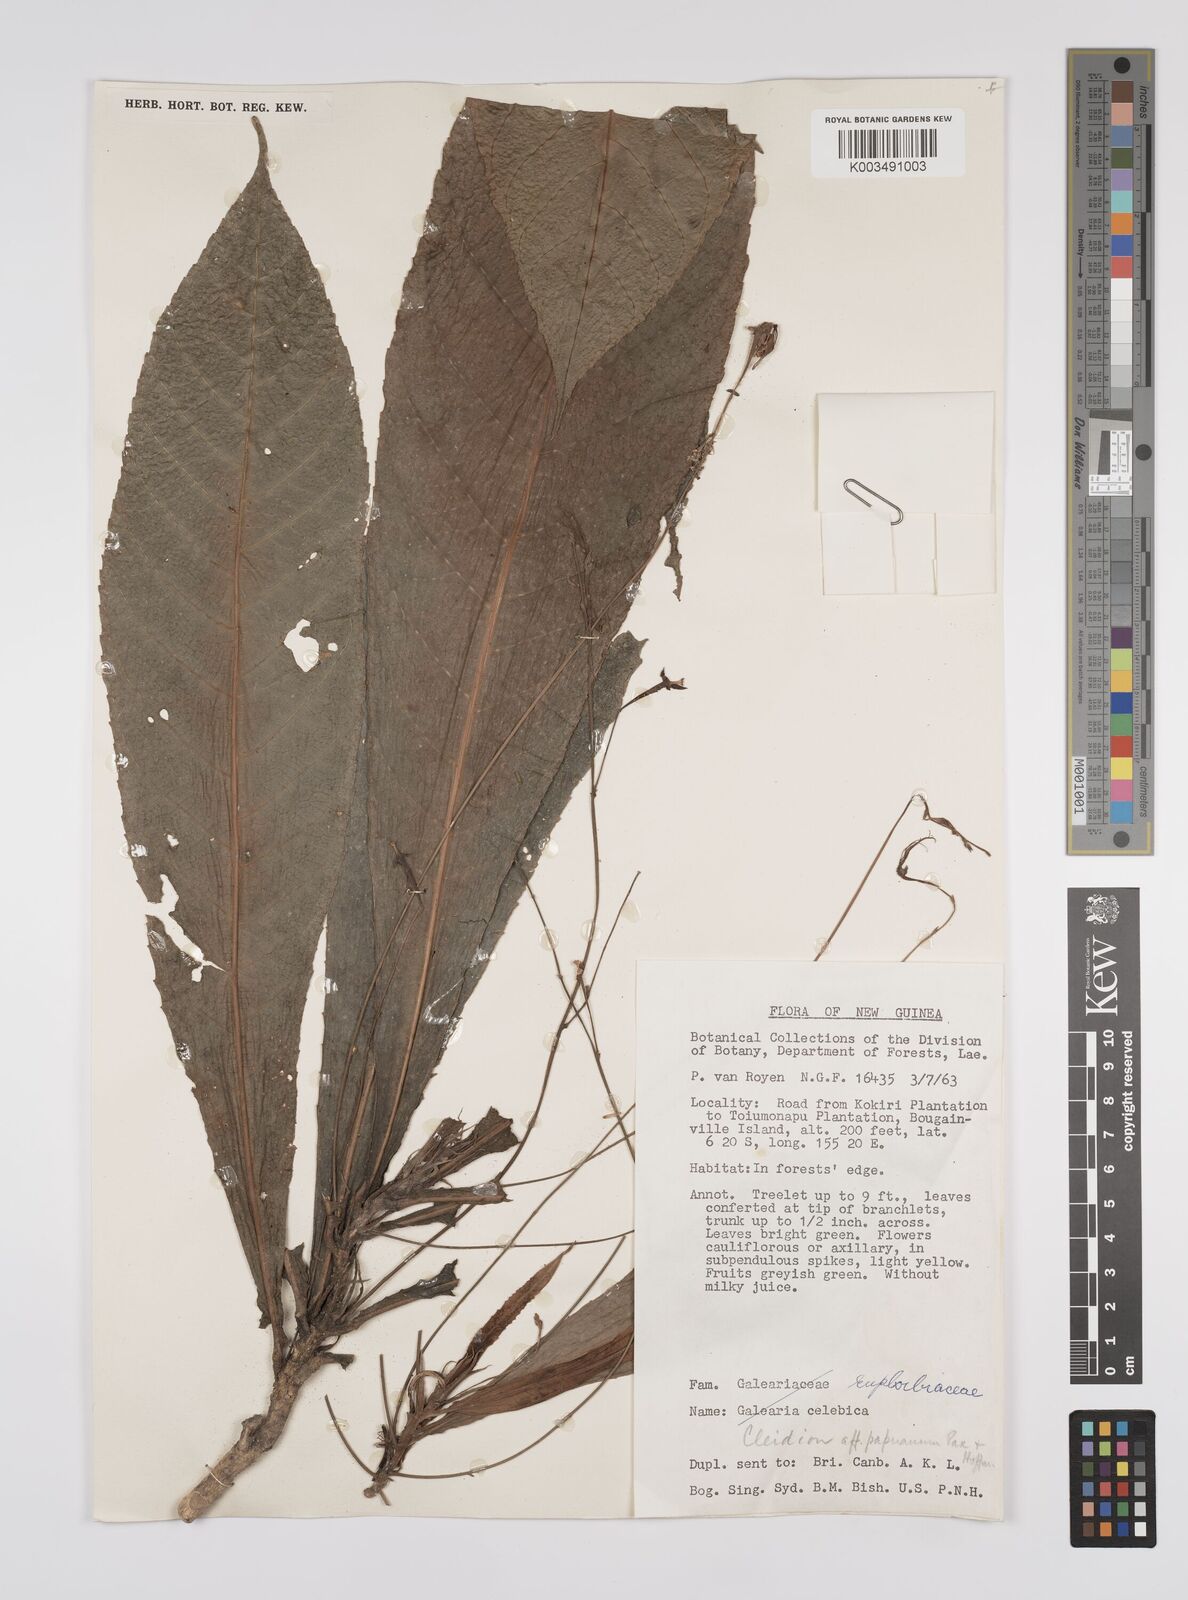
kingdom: Plantae
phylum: Tracheophyta
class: Magnoliopsida
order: Malpighiales
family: Euphorbiaceae
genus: Cleidion
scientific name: Cleidion papuanum
